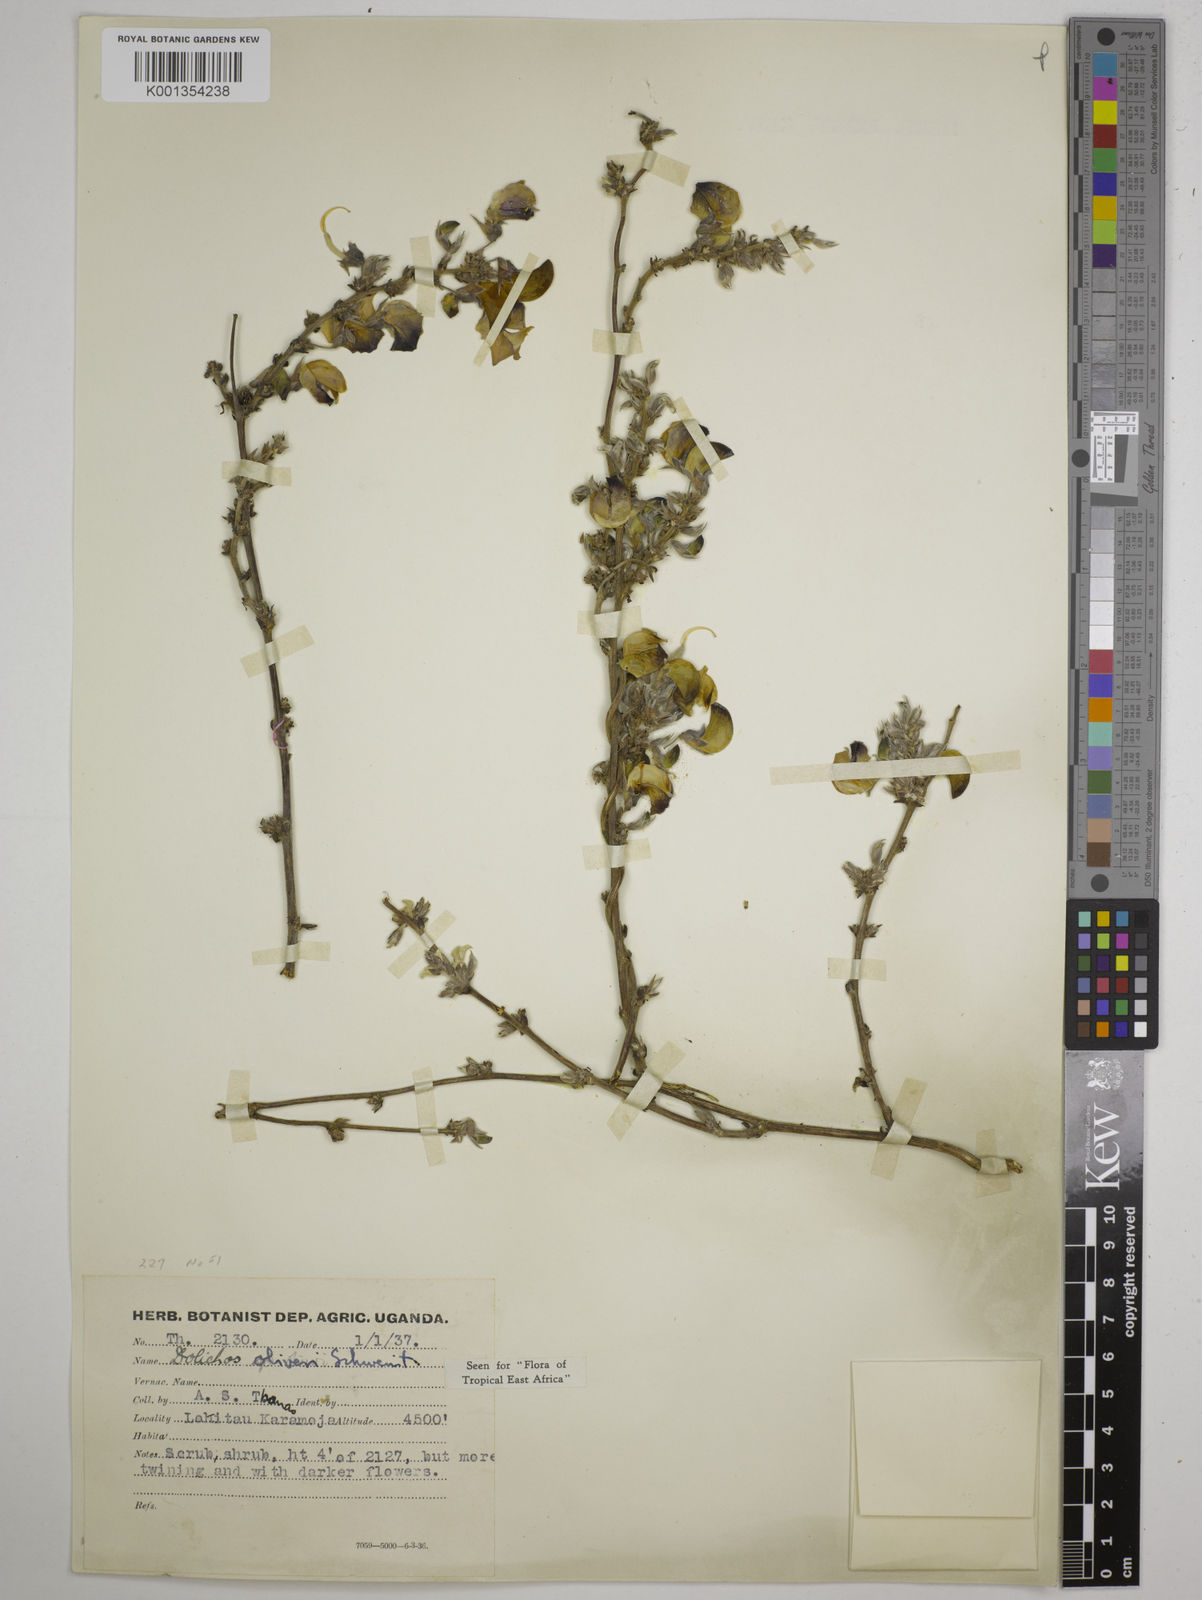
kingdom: Plantae
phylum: Tracheophyta
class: Magnoliopsida
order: Fabales
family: Fabaceae
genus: Dolichos
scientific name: Dolichos oliveri
